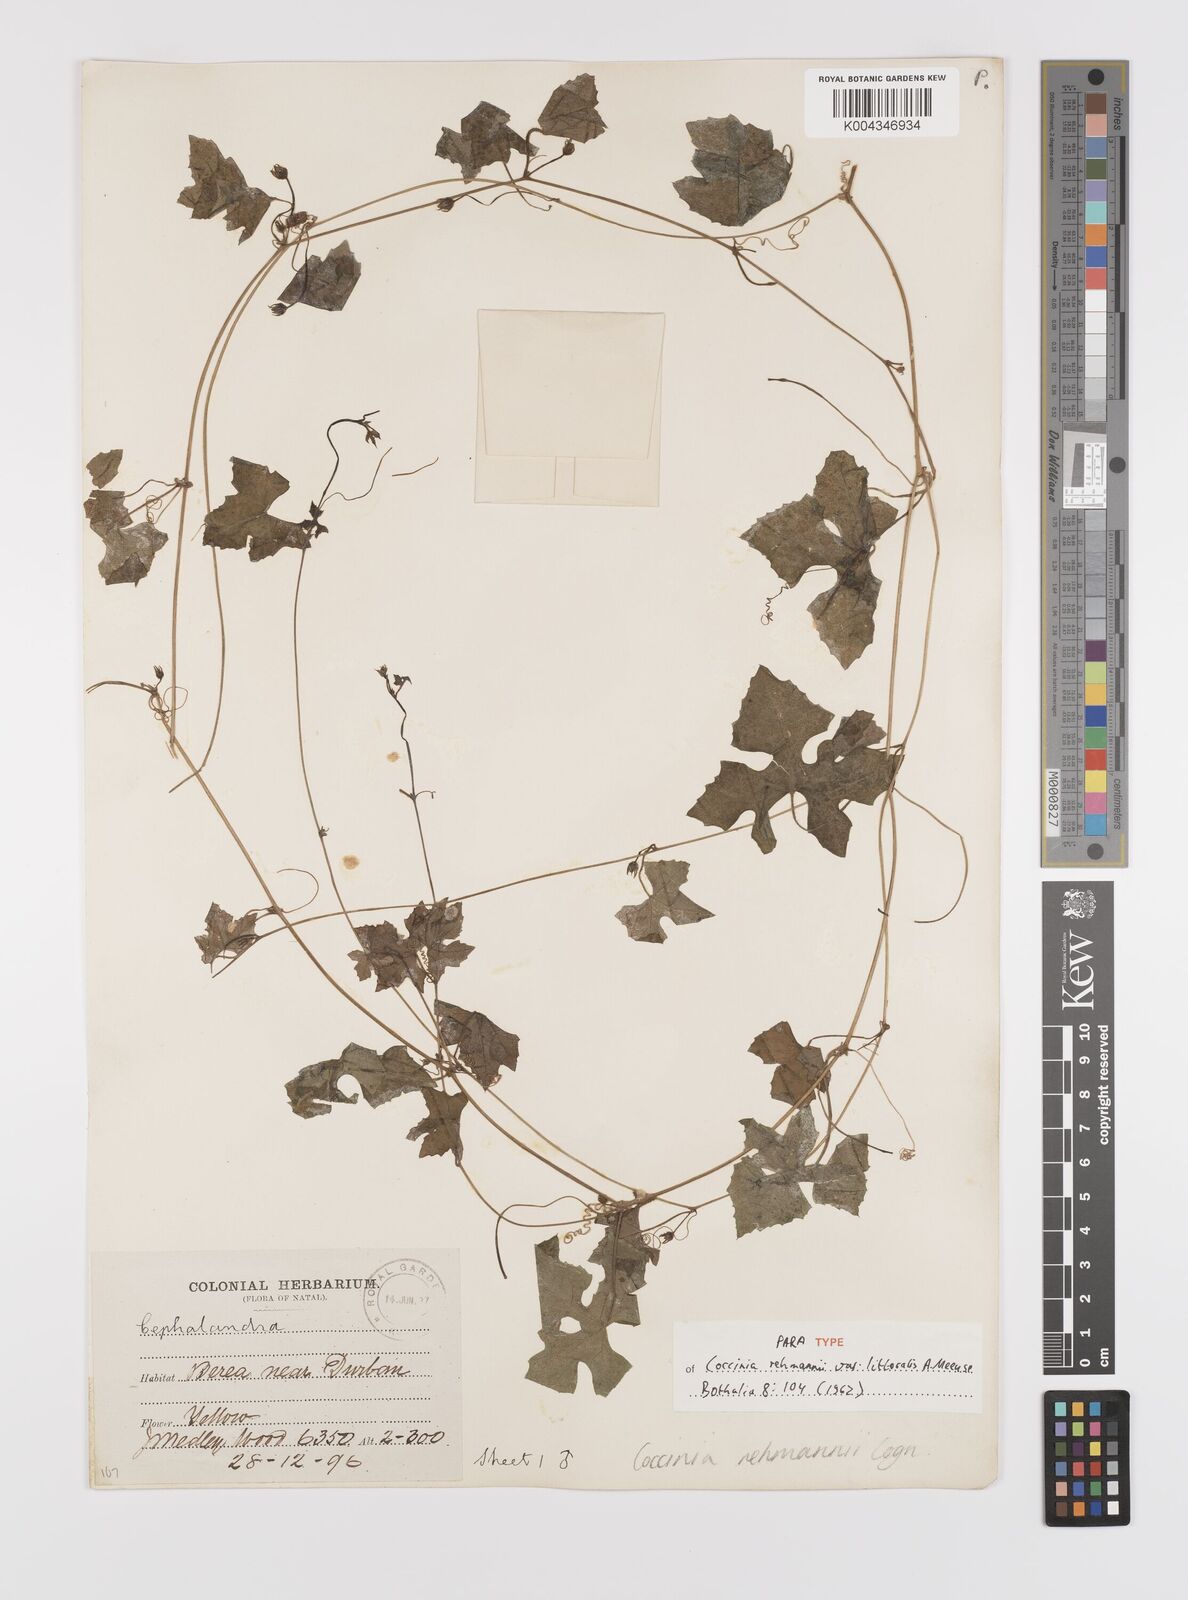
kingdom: Plantae
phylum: Tracheophyta
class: Magnoliopsida
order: Cucurbitales
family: Cucurbitaceae
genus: Coccinia
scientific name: Coccinia rehmannii
